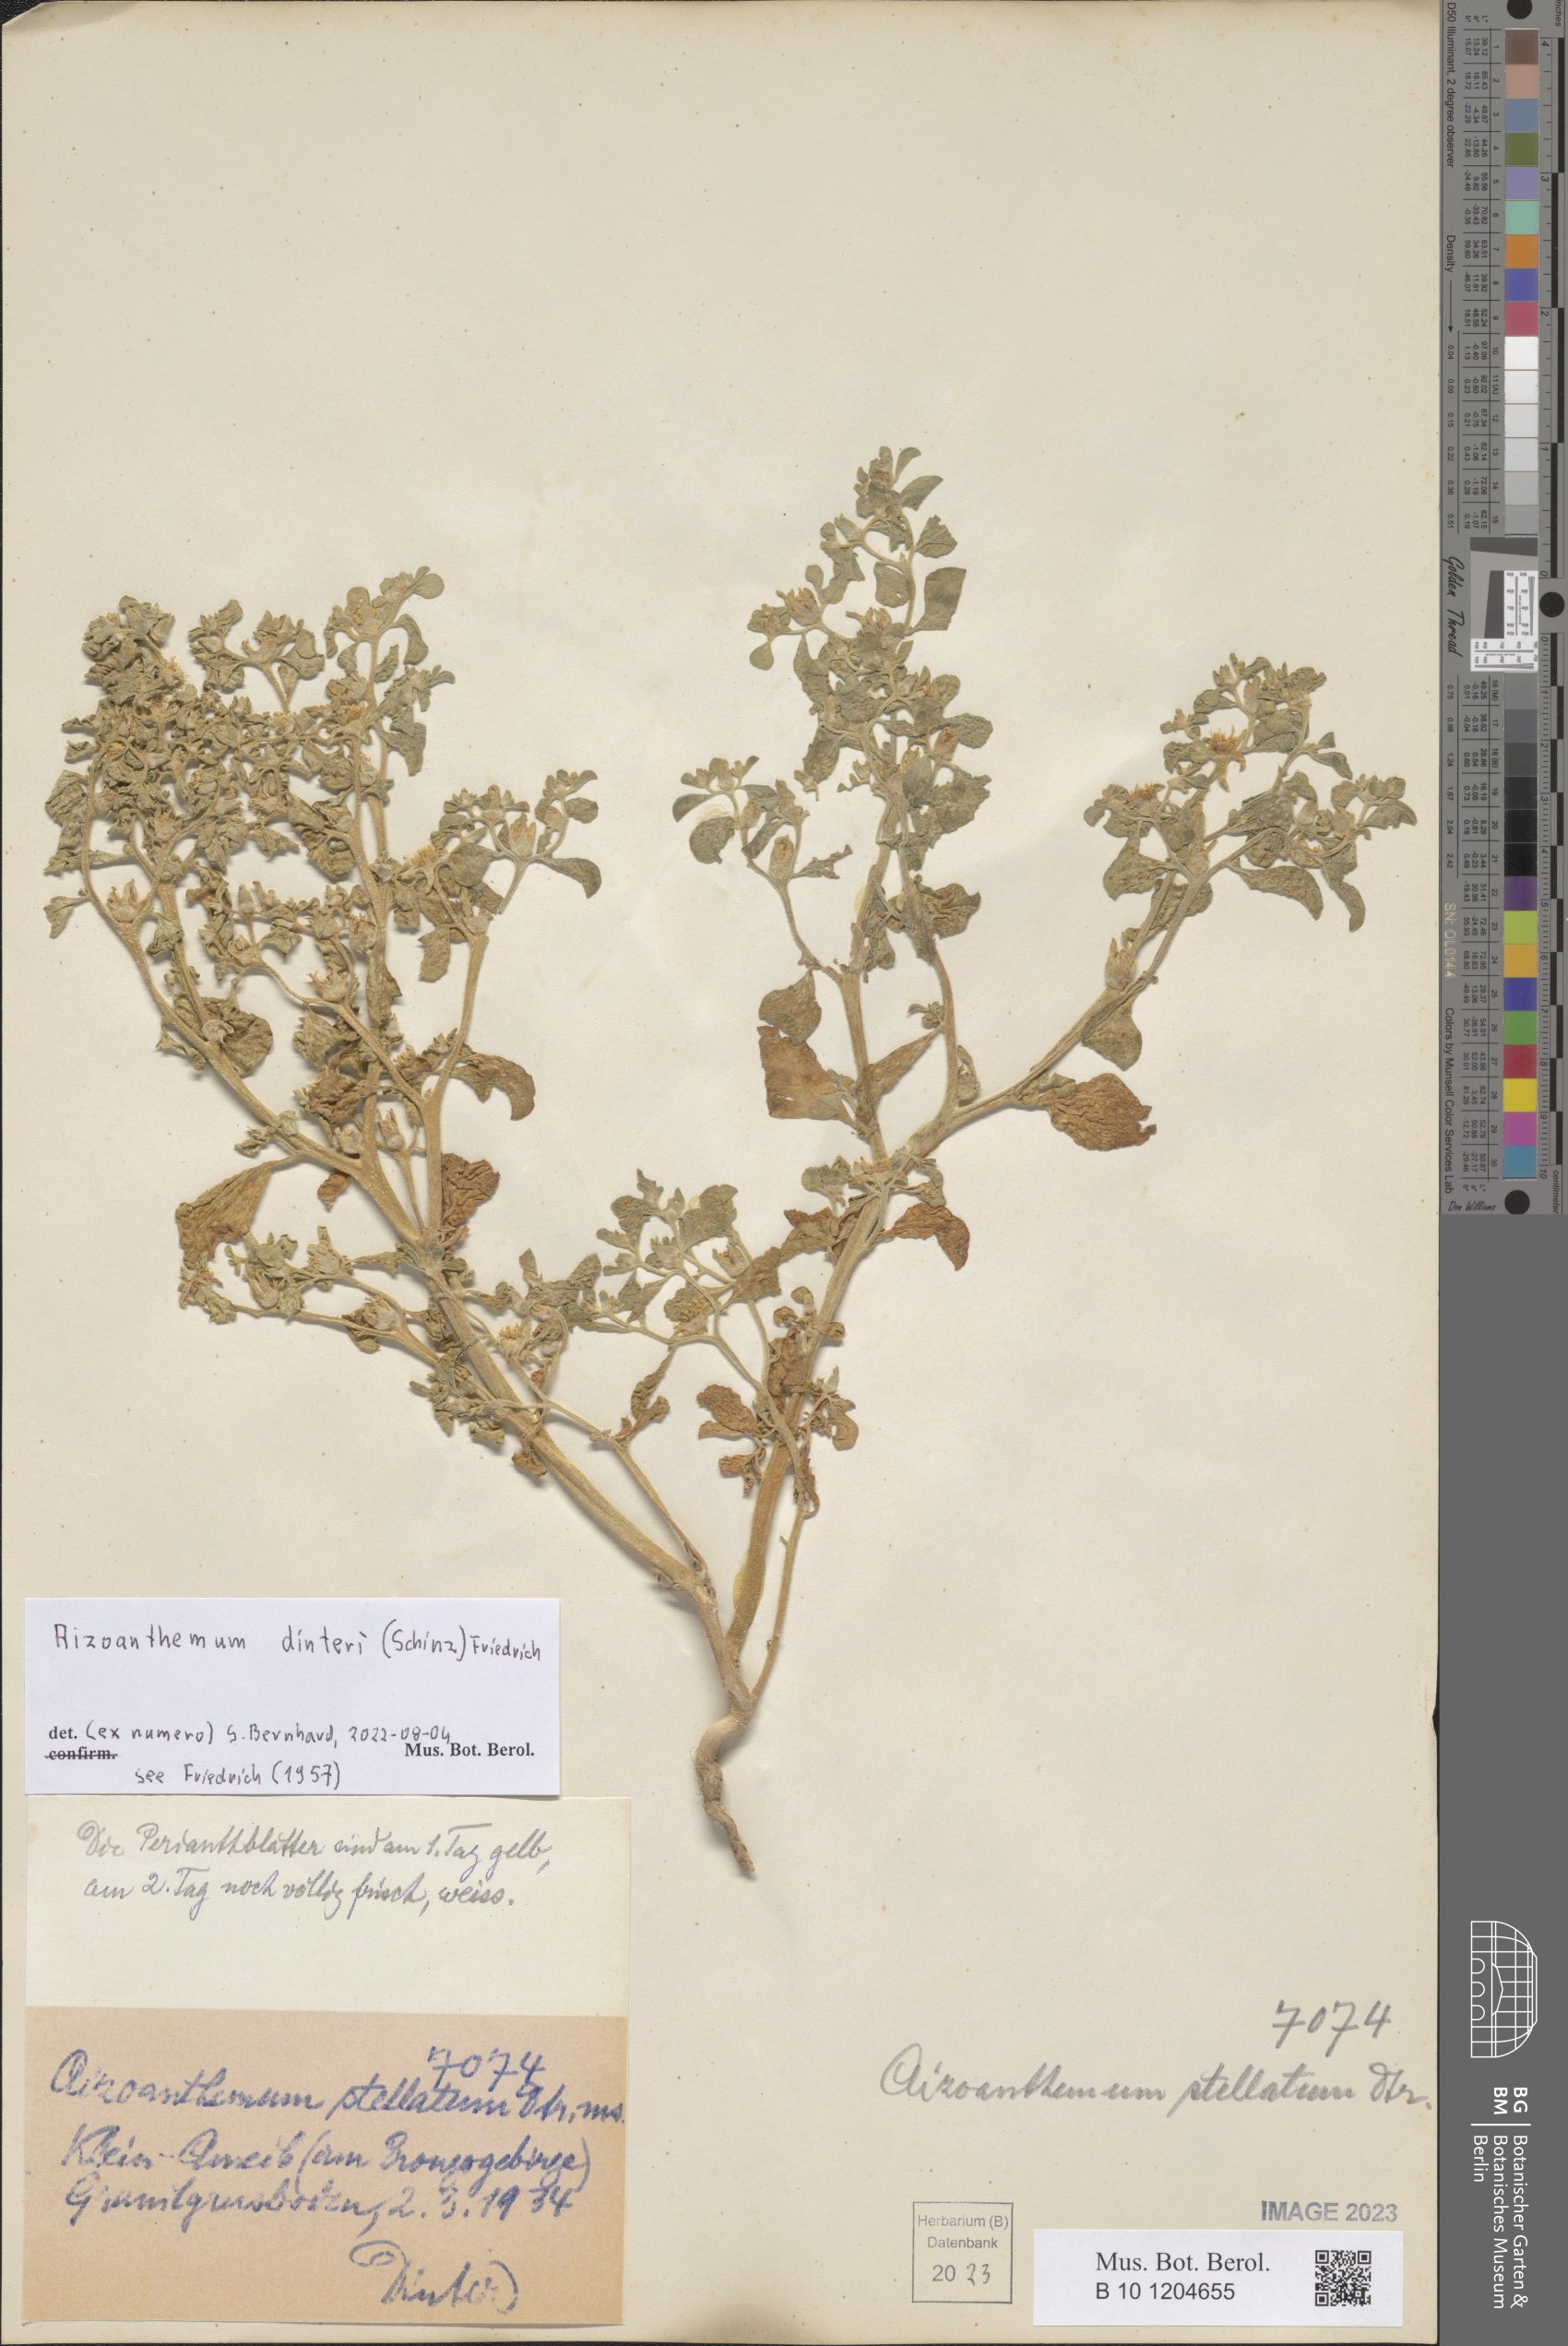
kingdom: Plantae
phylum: Tracheophyta
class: Magnoliopsida
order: Caryophyllales
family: Aizoaceae
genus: Aizoanthemum
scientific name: Aizoanthemum dinteri
